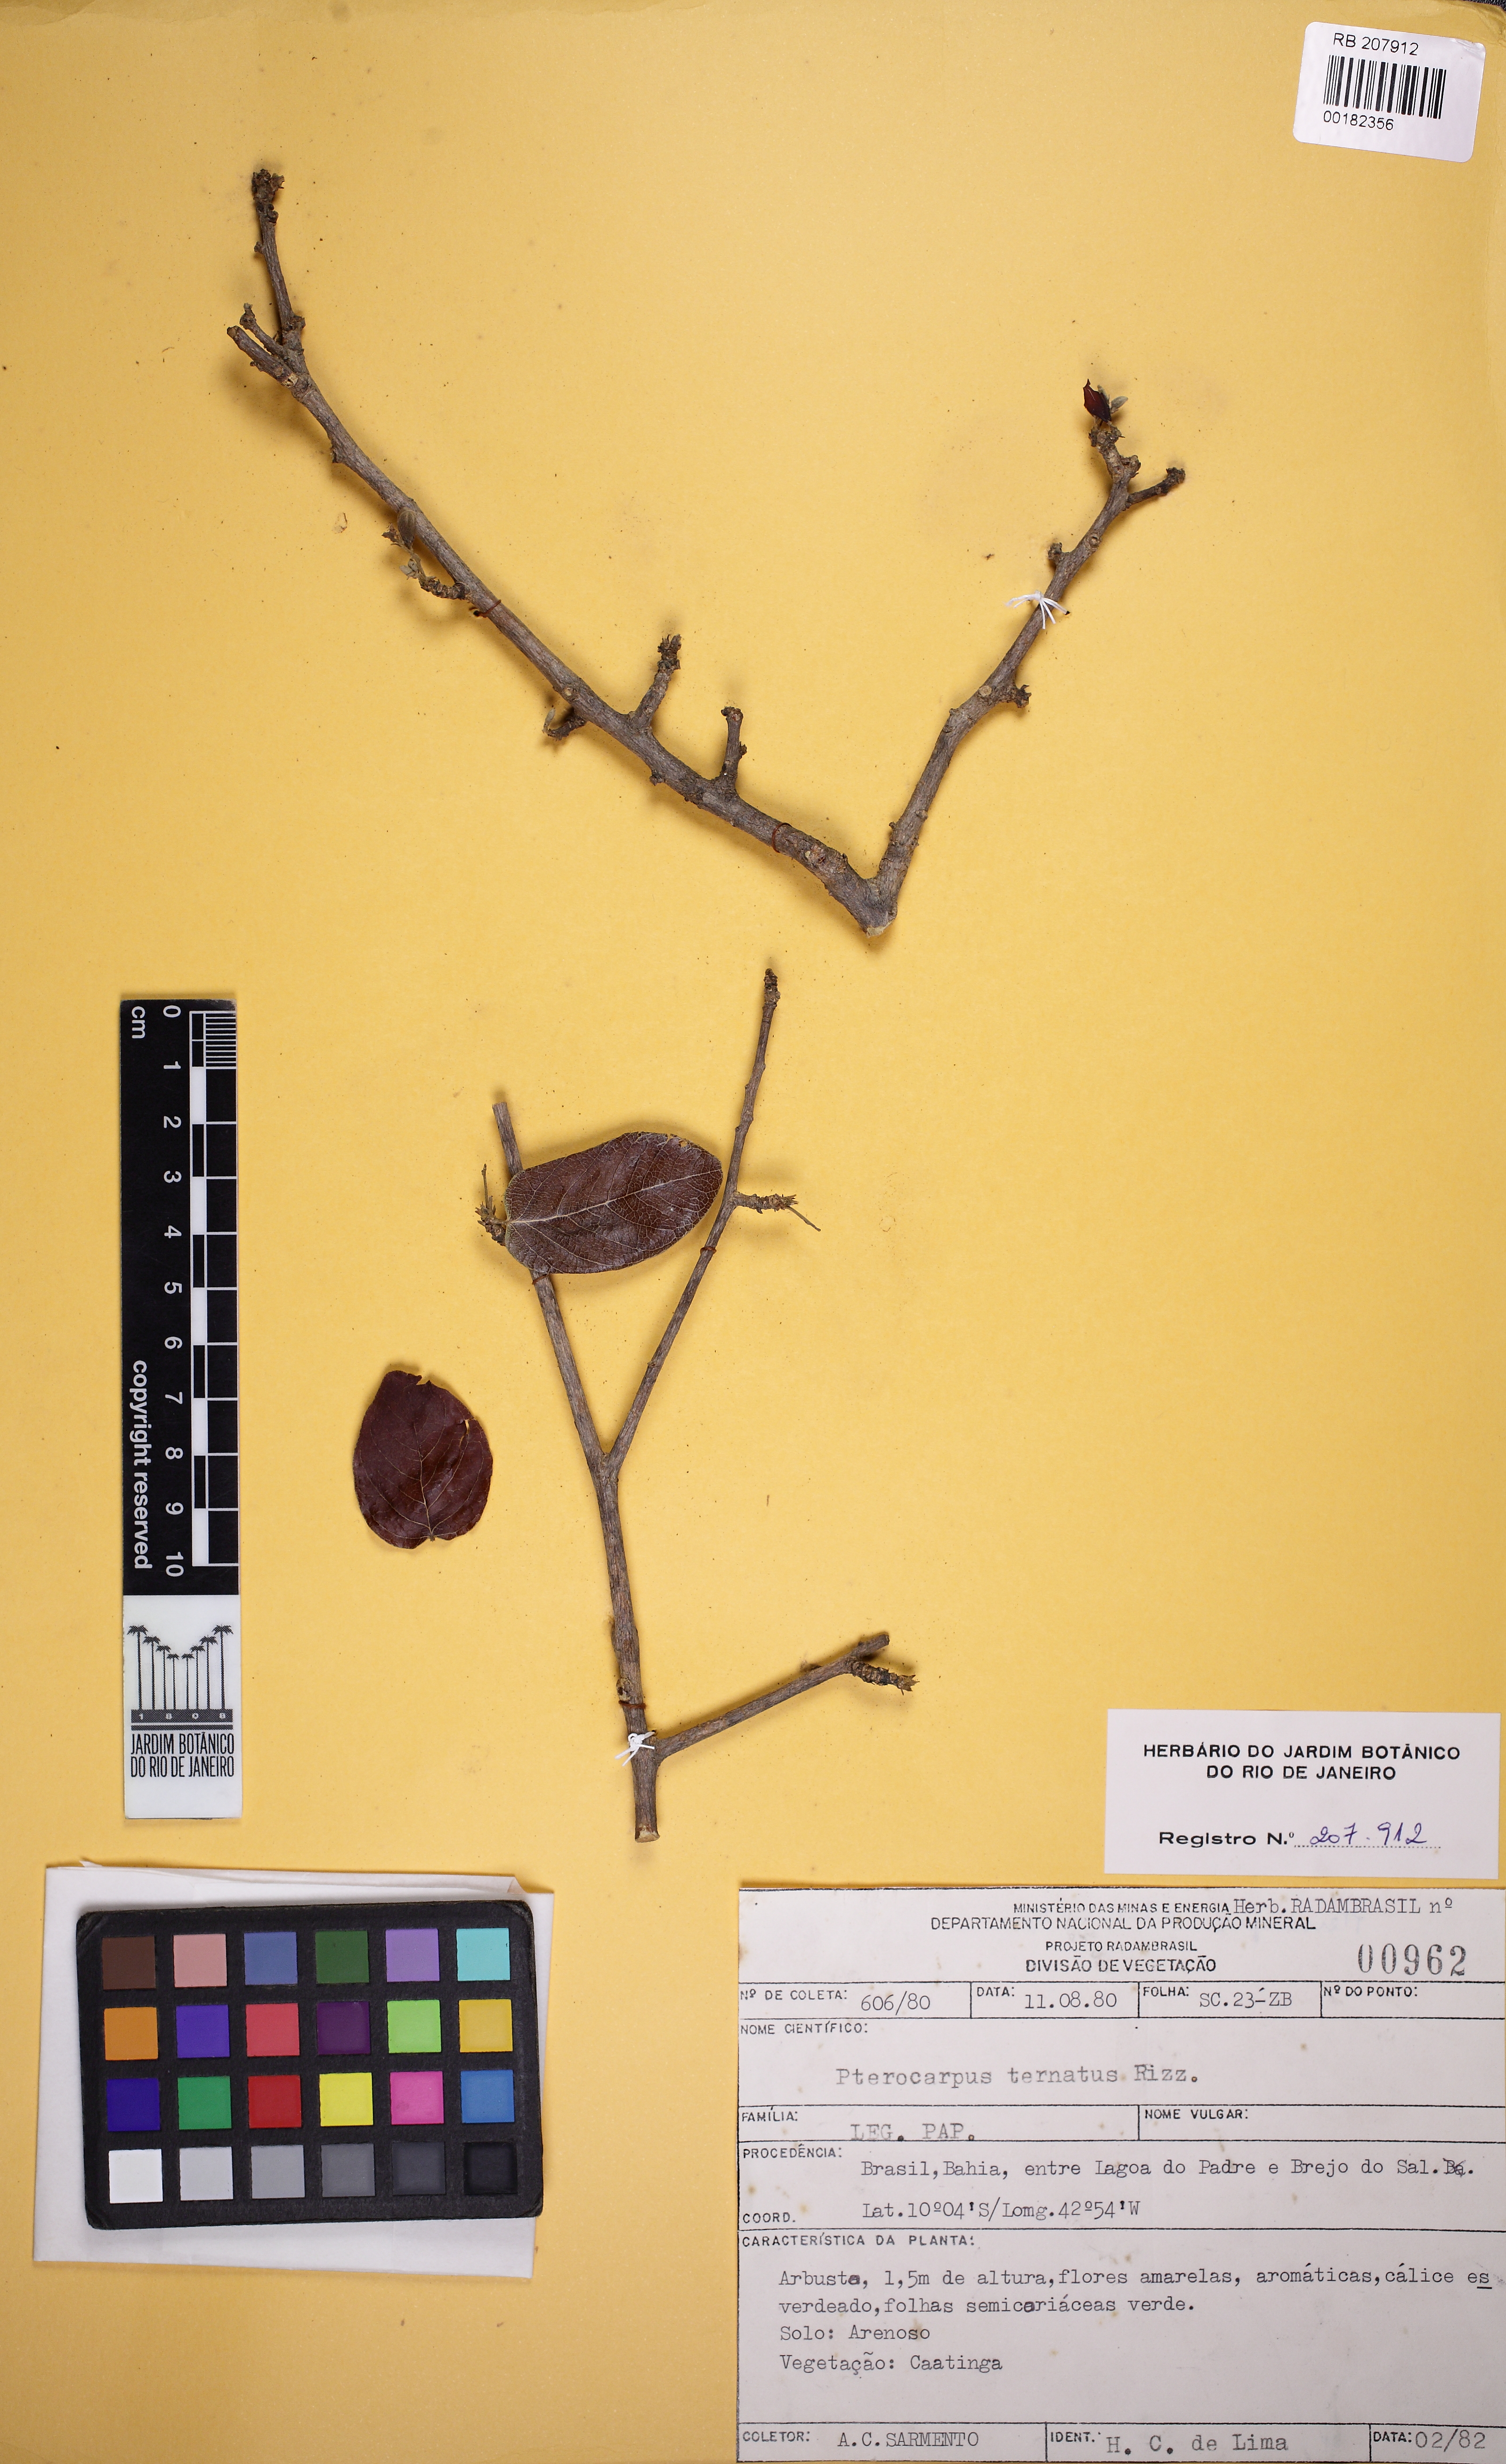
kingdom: Plantae
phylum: Tracheophyta
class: Magnoliopsida
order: Fabales
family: Fabaceae
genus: Pterocarpus
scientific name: Pterocarpus ternatus
